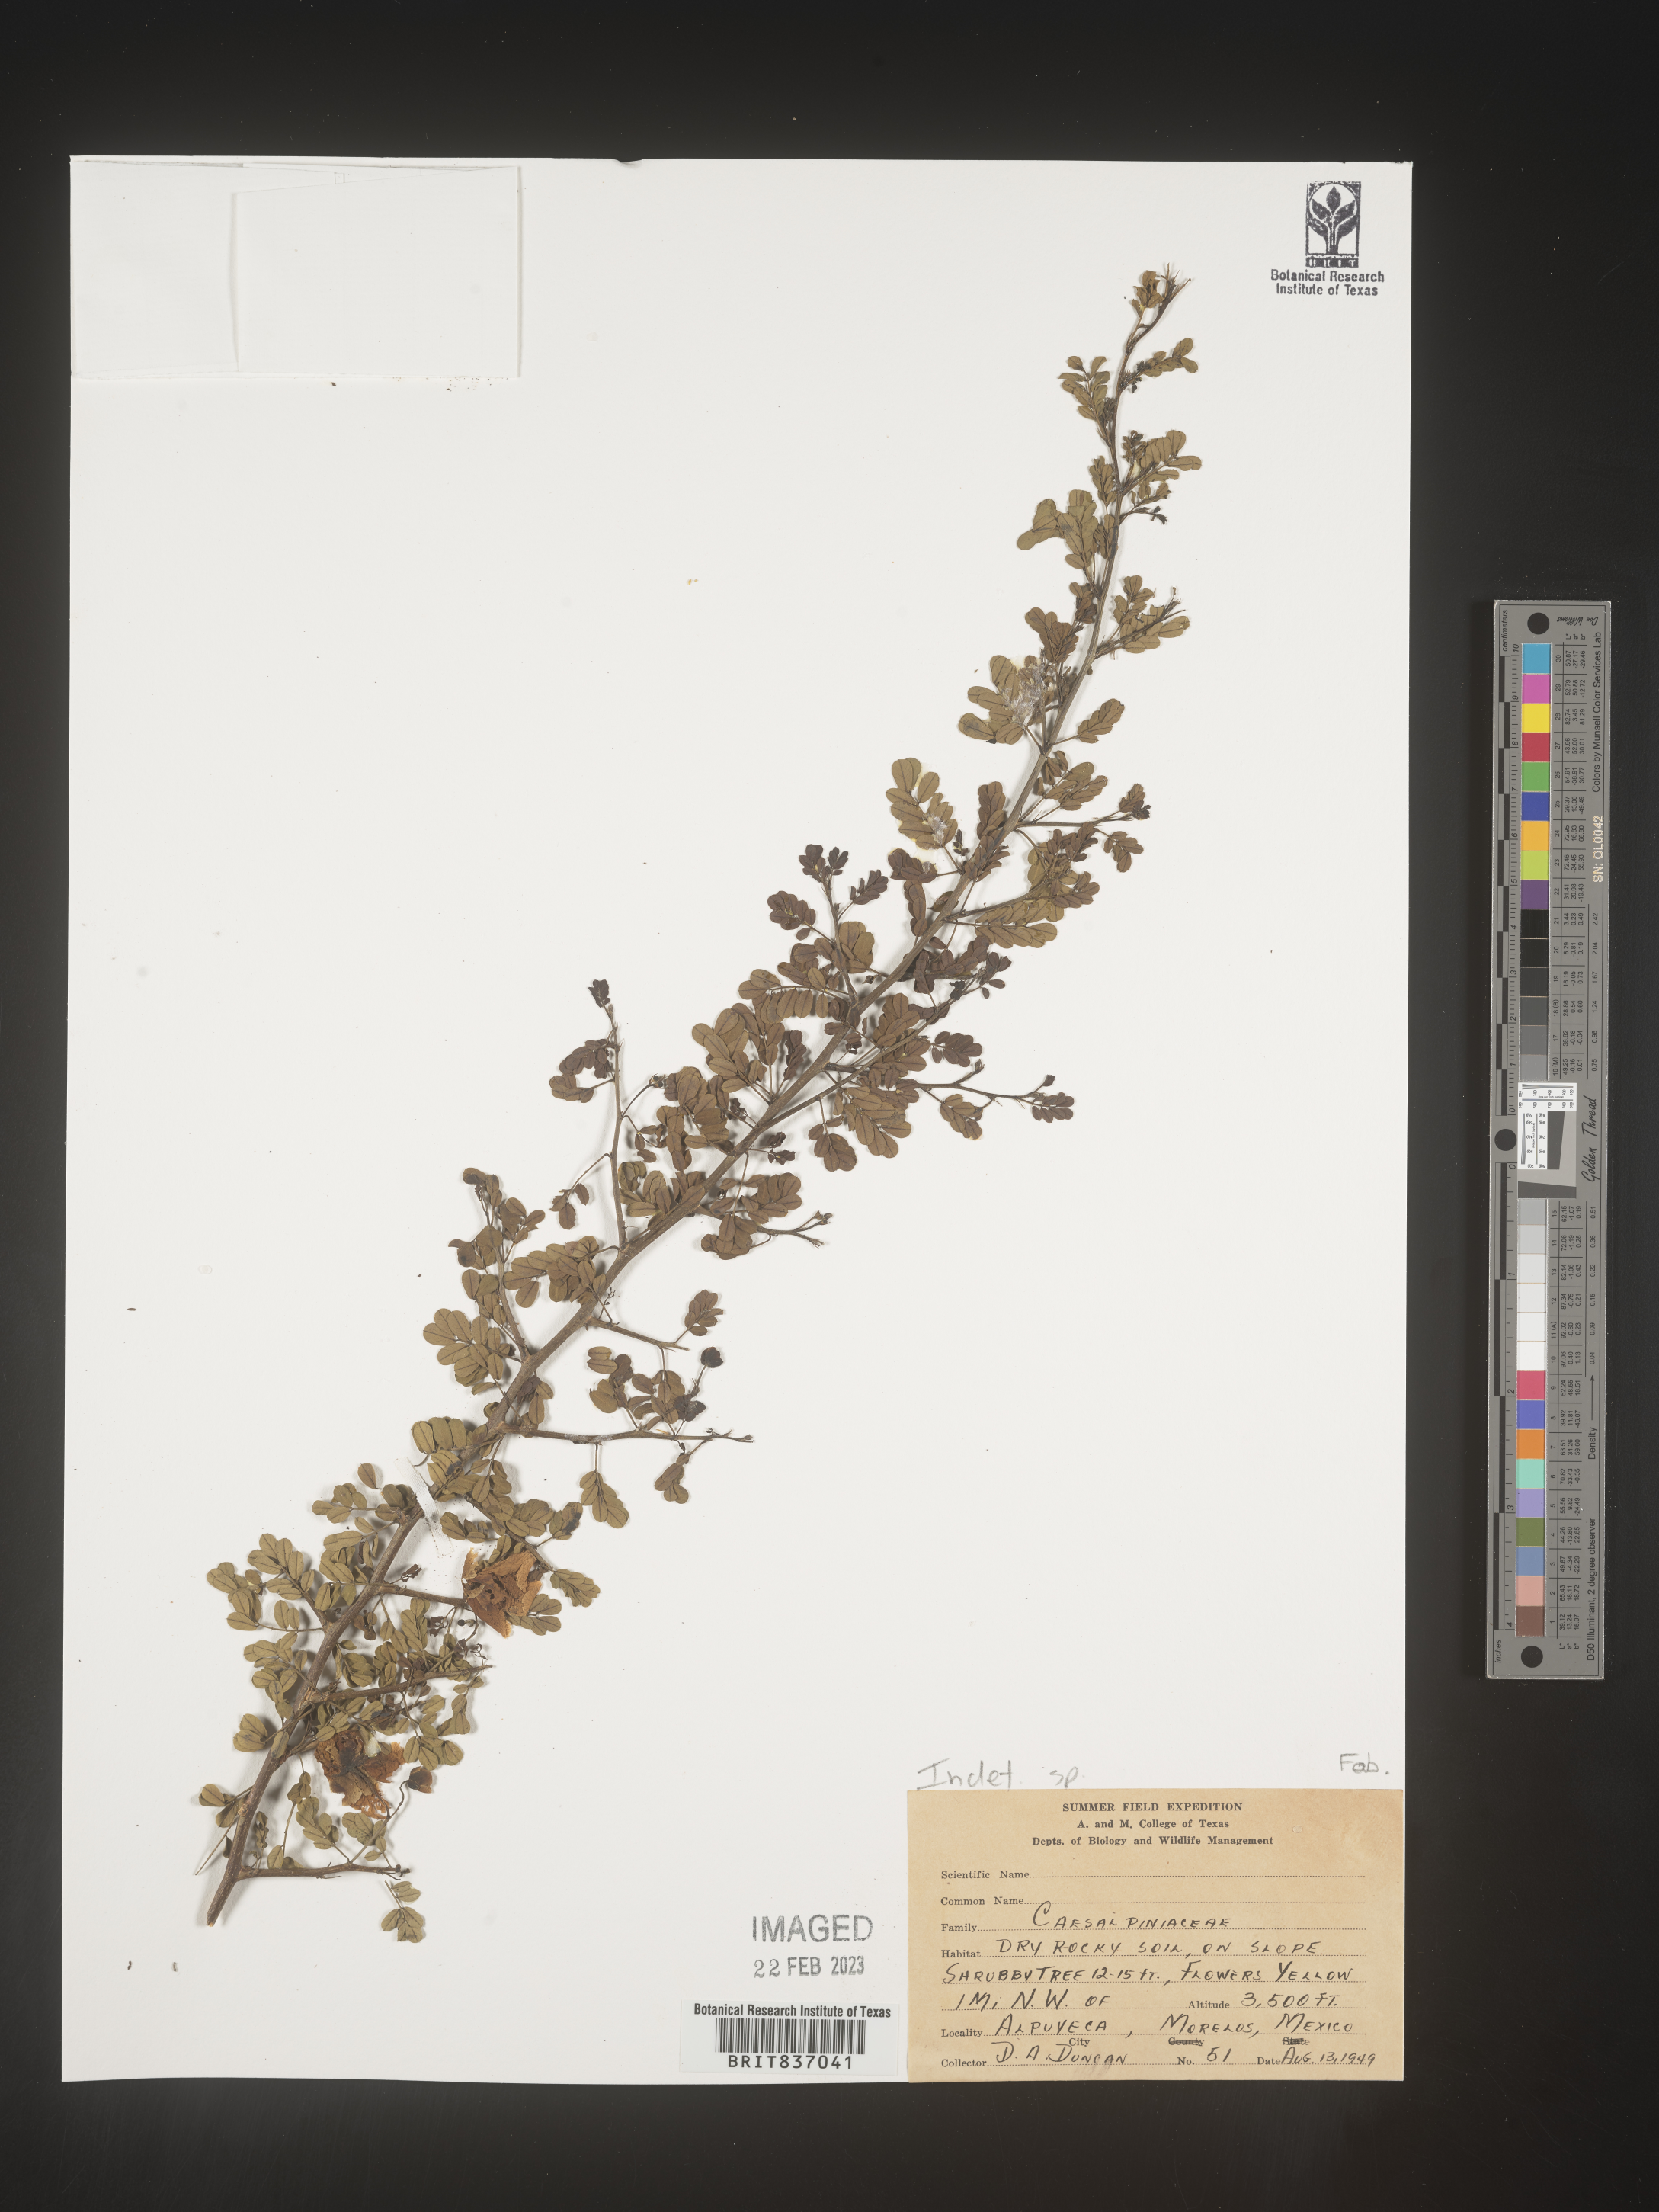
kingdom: Plantae
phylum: Tracheophyta
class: Magnoliopsida
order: Fabales
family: Fabaceae
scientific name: Fabaceae
